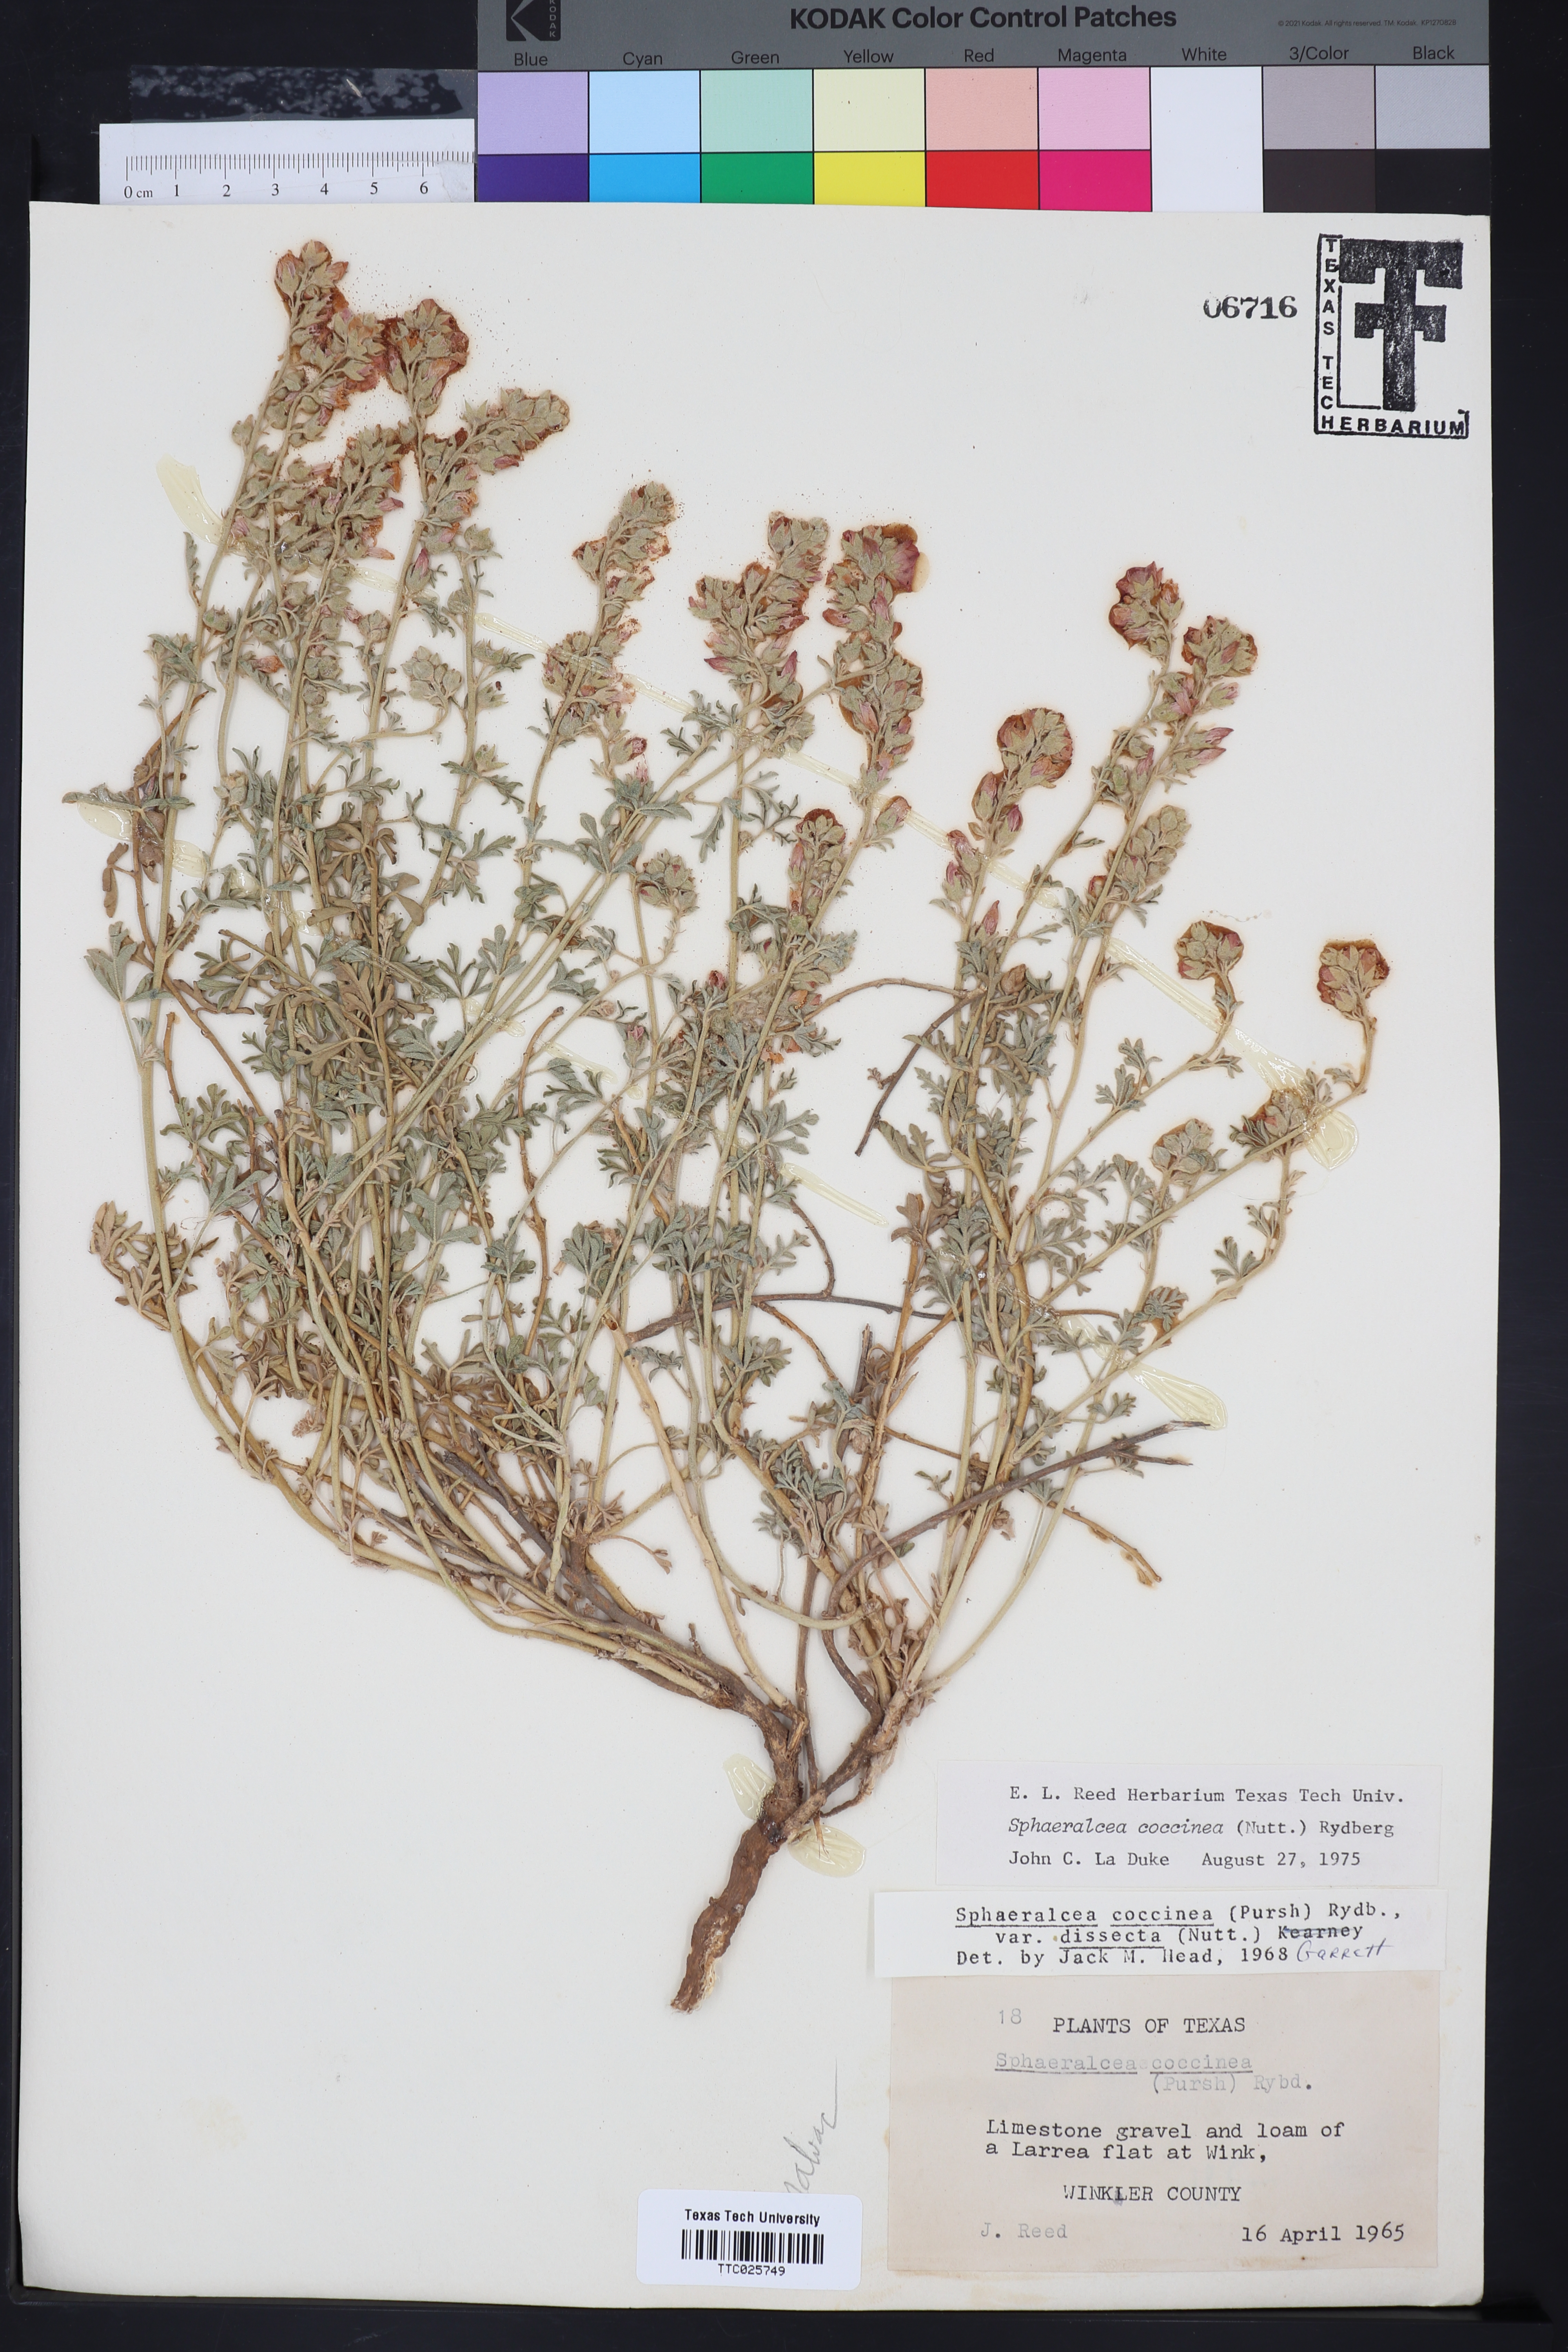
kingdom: Plantae
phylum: Tracheophyta
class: Magnoliopsida
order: Malvales
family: Malvaceae
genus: Sphaeralcea
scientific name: Sphaeralcea coccinea
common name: Moss-rose
